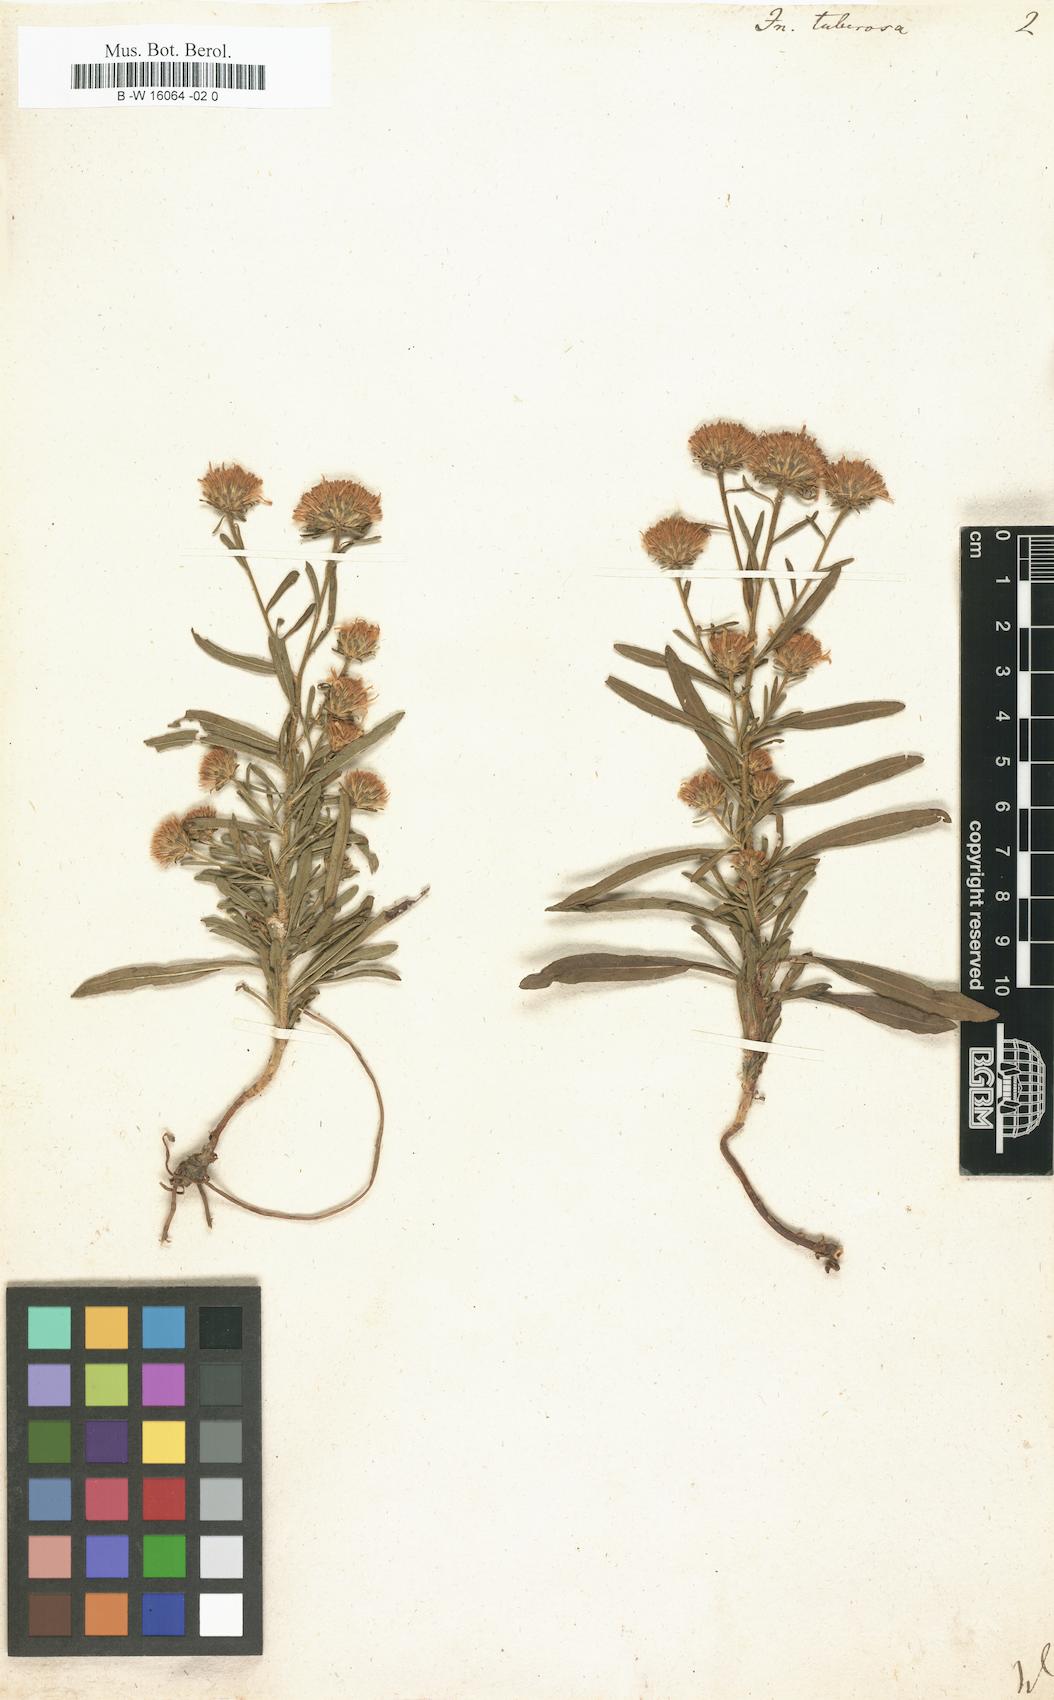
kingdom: Plantae
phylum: Tracheophyta
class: Magnoliopsida
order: Asterales
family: Asteraceae
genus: Jasonia
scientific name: Jasonia tuberosa
